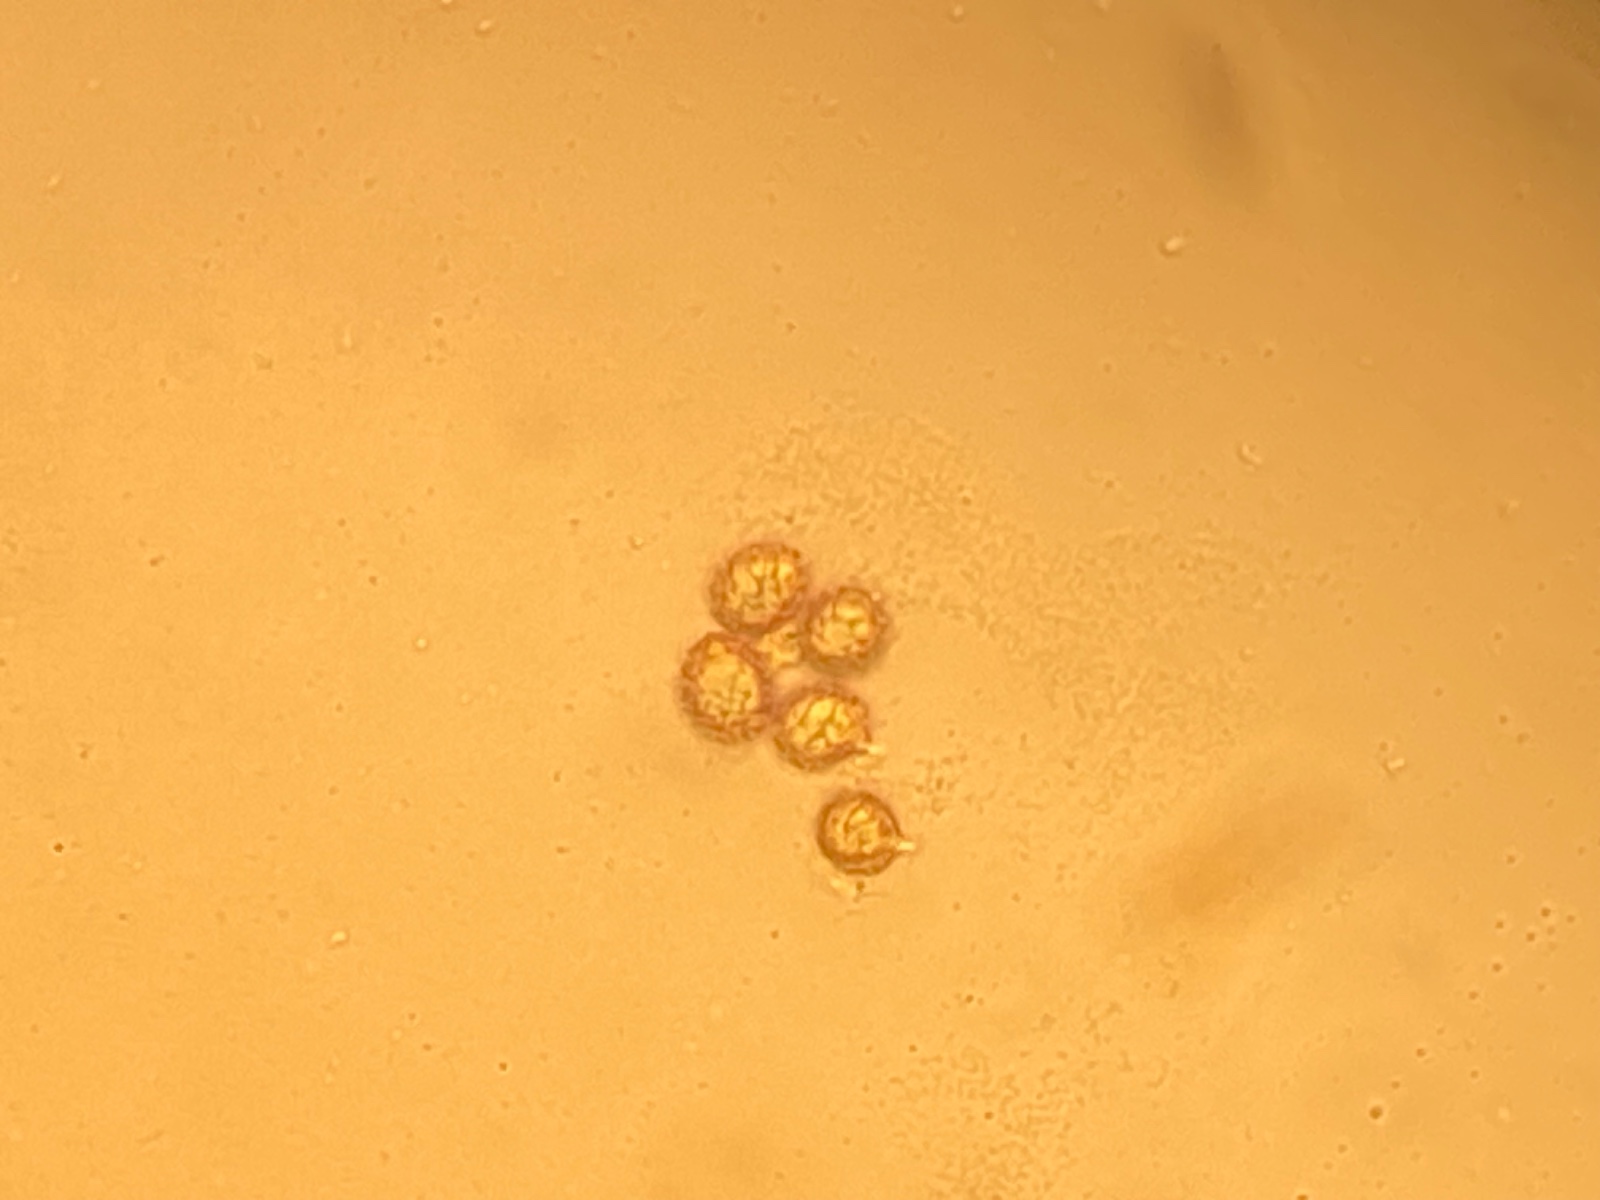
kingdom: Fungi
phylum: Basidiomycota
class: Agaricomycetes
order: Russulales
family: Russulaceae
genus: Russula
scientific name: Russula pelargonia
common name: pelargonie-skørhat
